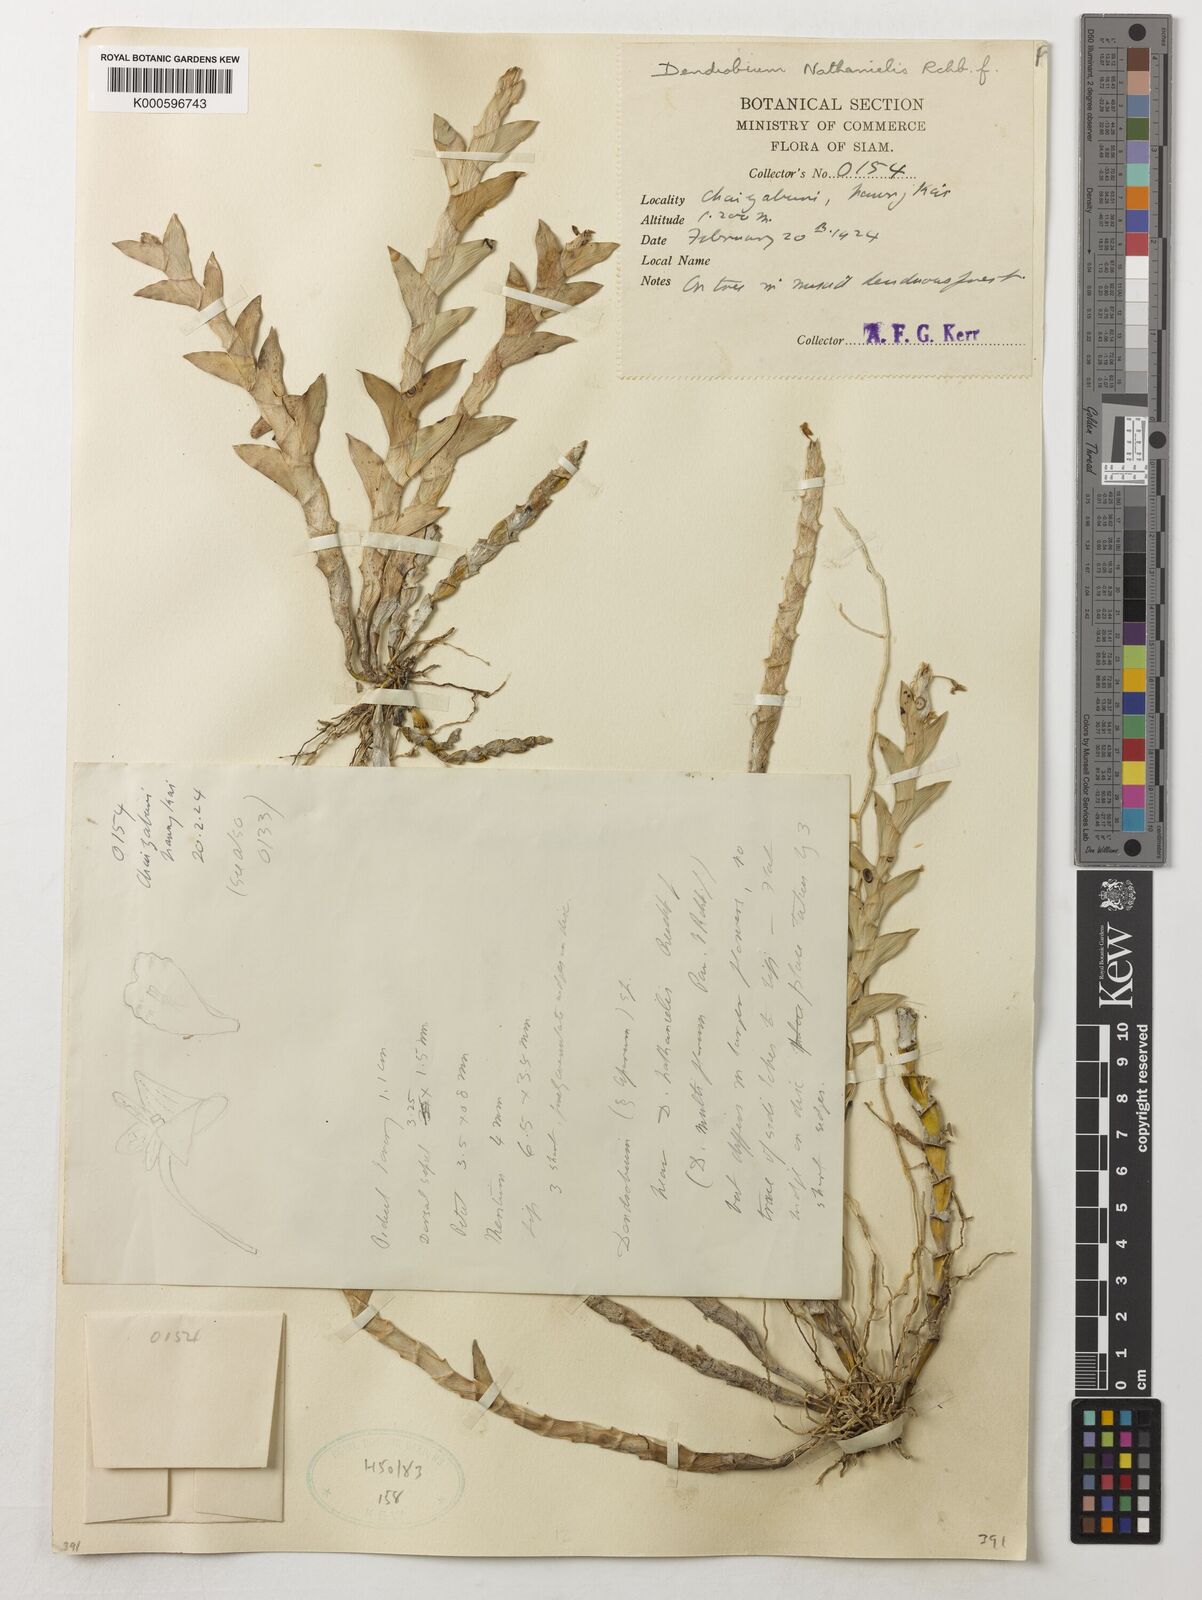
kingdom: Plantae
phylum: Tracheophyta
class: Liliopsida
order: Asparagales
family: Orchidaceae
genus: Dendrobium
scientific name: Dendrobium nathanielis
